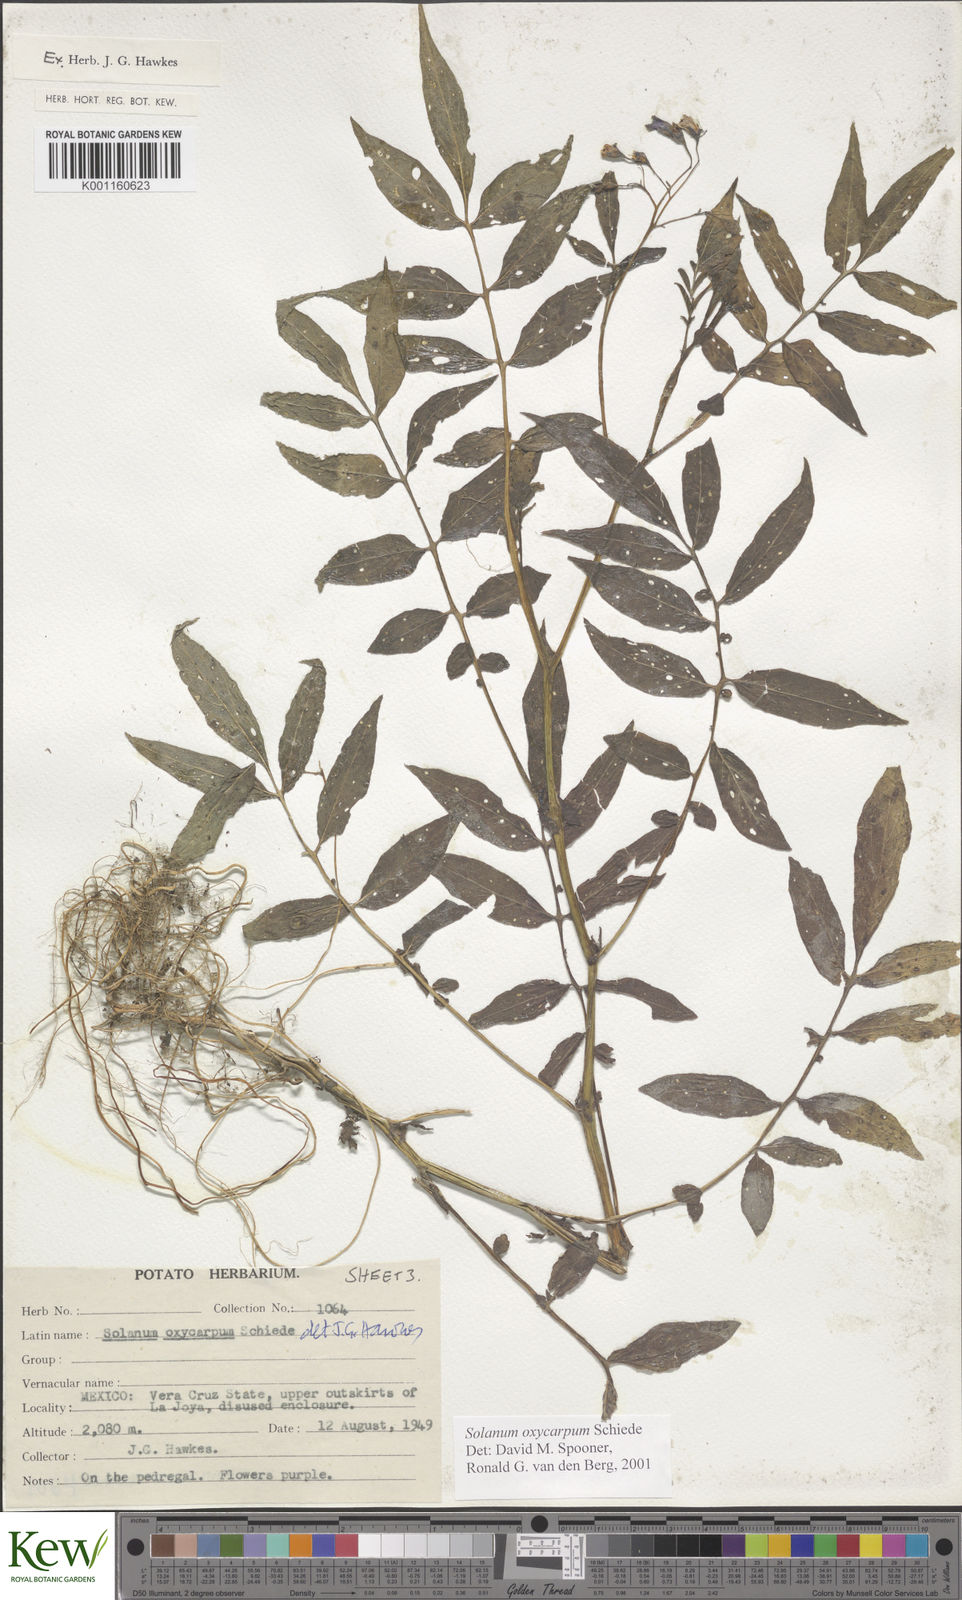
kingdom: Plantae
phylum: Tracheophyta
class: Magnoliopsida
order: Solanales
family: Solanaceae
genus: Solanum
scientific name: Solanum oxycarpum
